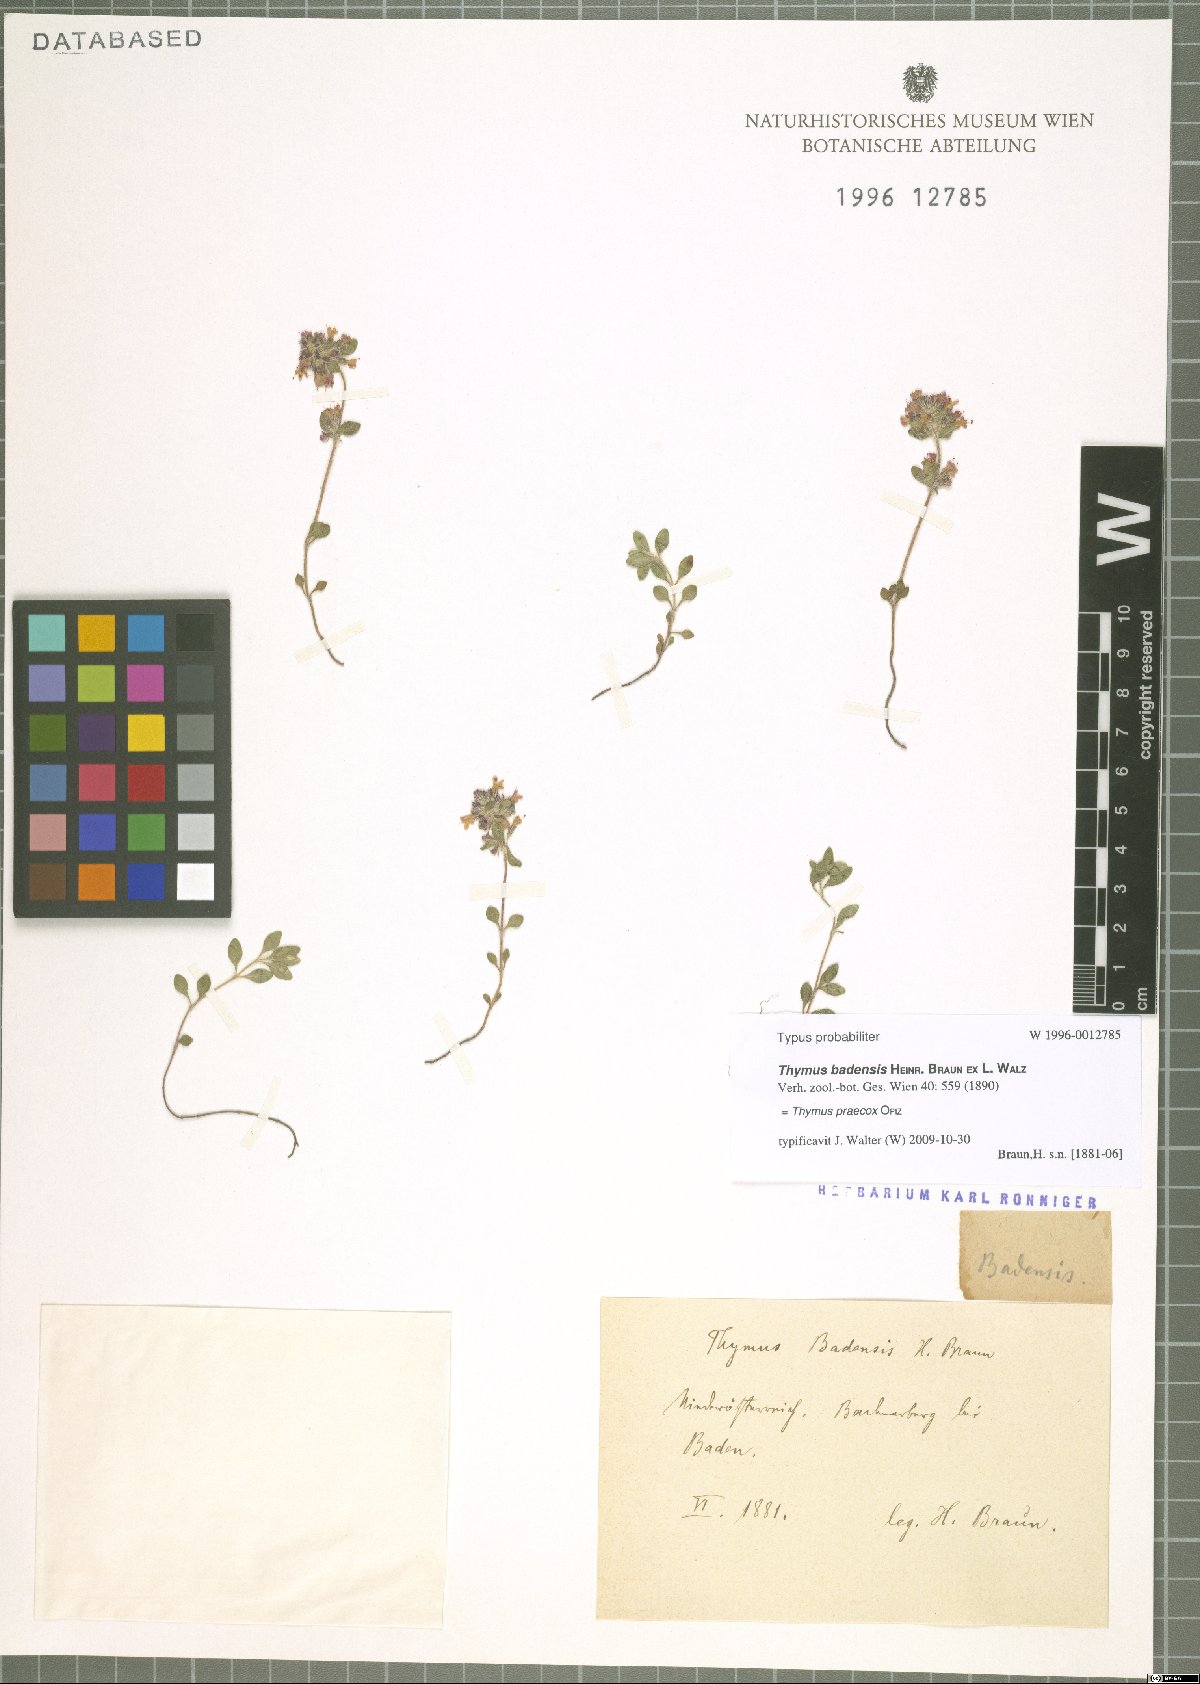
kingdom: Plantae
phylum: Tracheophyta
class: Magnoliopsida
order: Lamiales
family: Lamiaceae
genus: Thymus
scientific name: Thymus praecox
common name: Wild thyme
